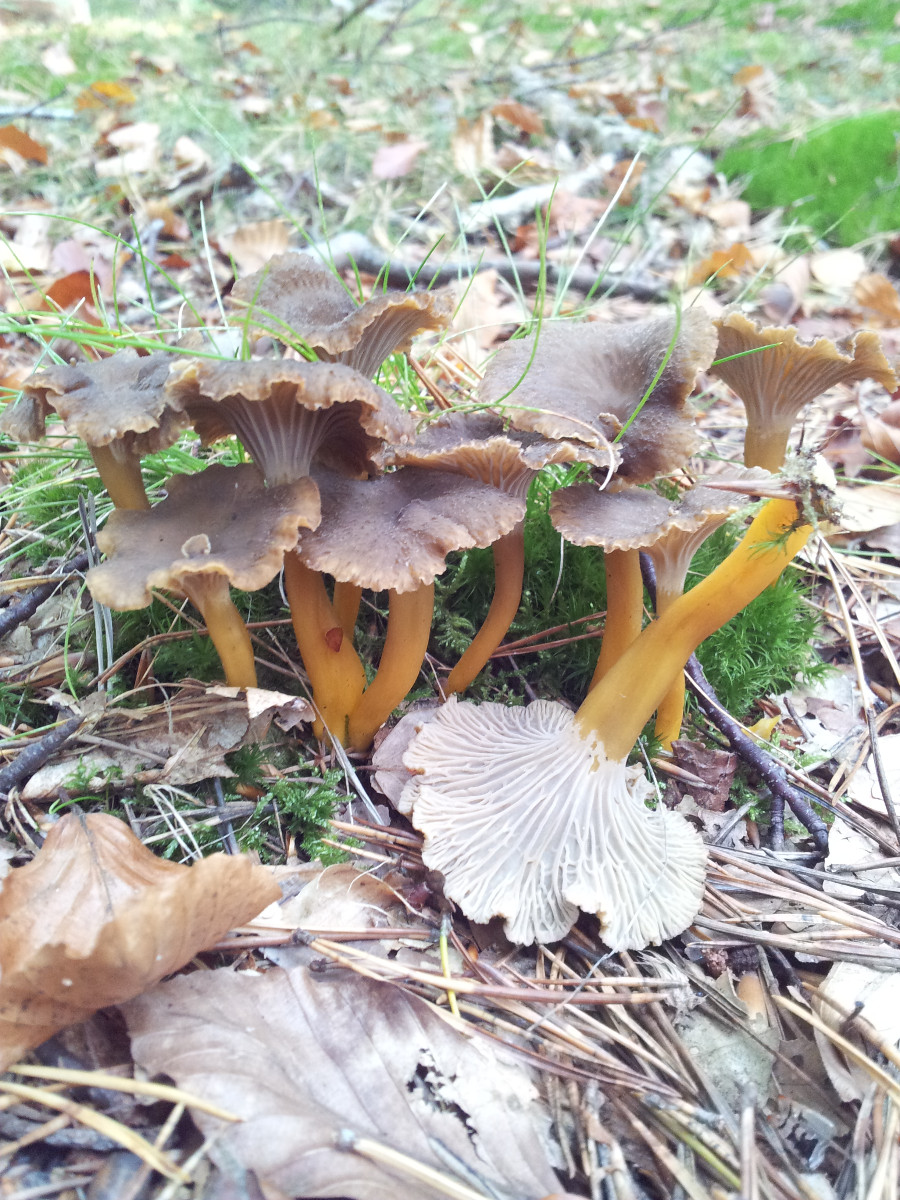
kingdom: Fungi
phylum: Basidiomycota
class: Agaricomycetes
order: Cantharellales
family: Hydnaceae
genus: Craterellus
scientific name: Craterellus tubaeformis
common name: tragt-kantarel
